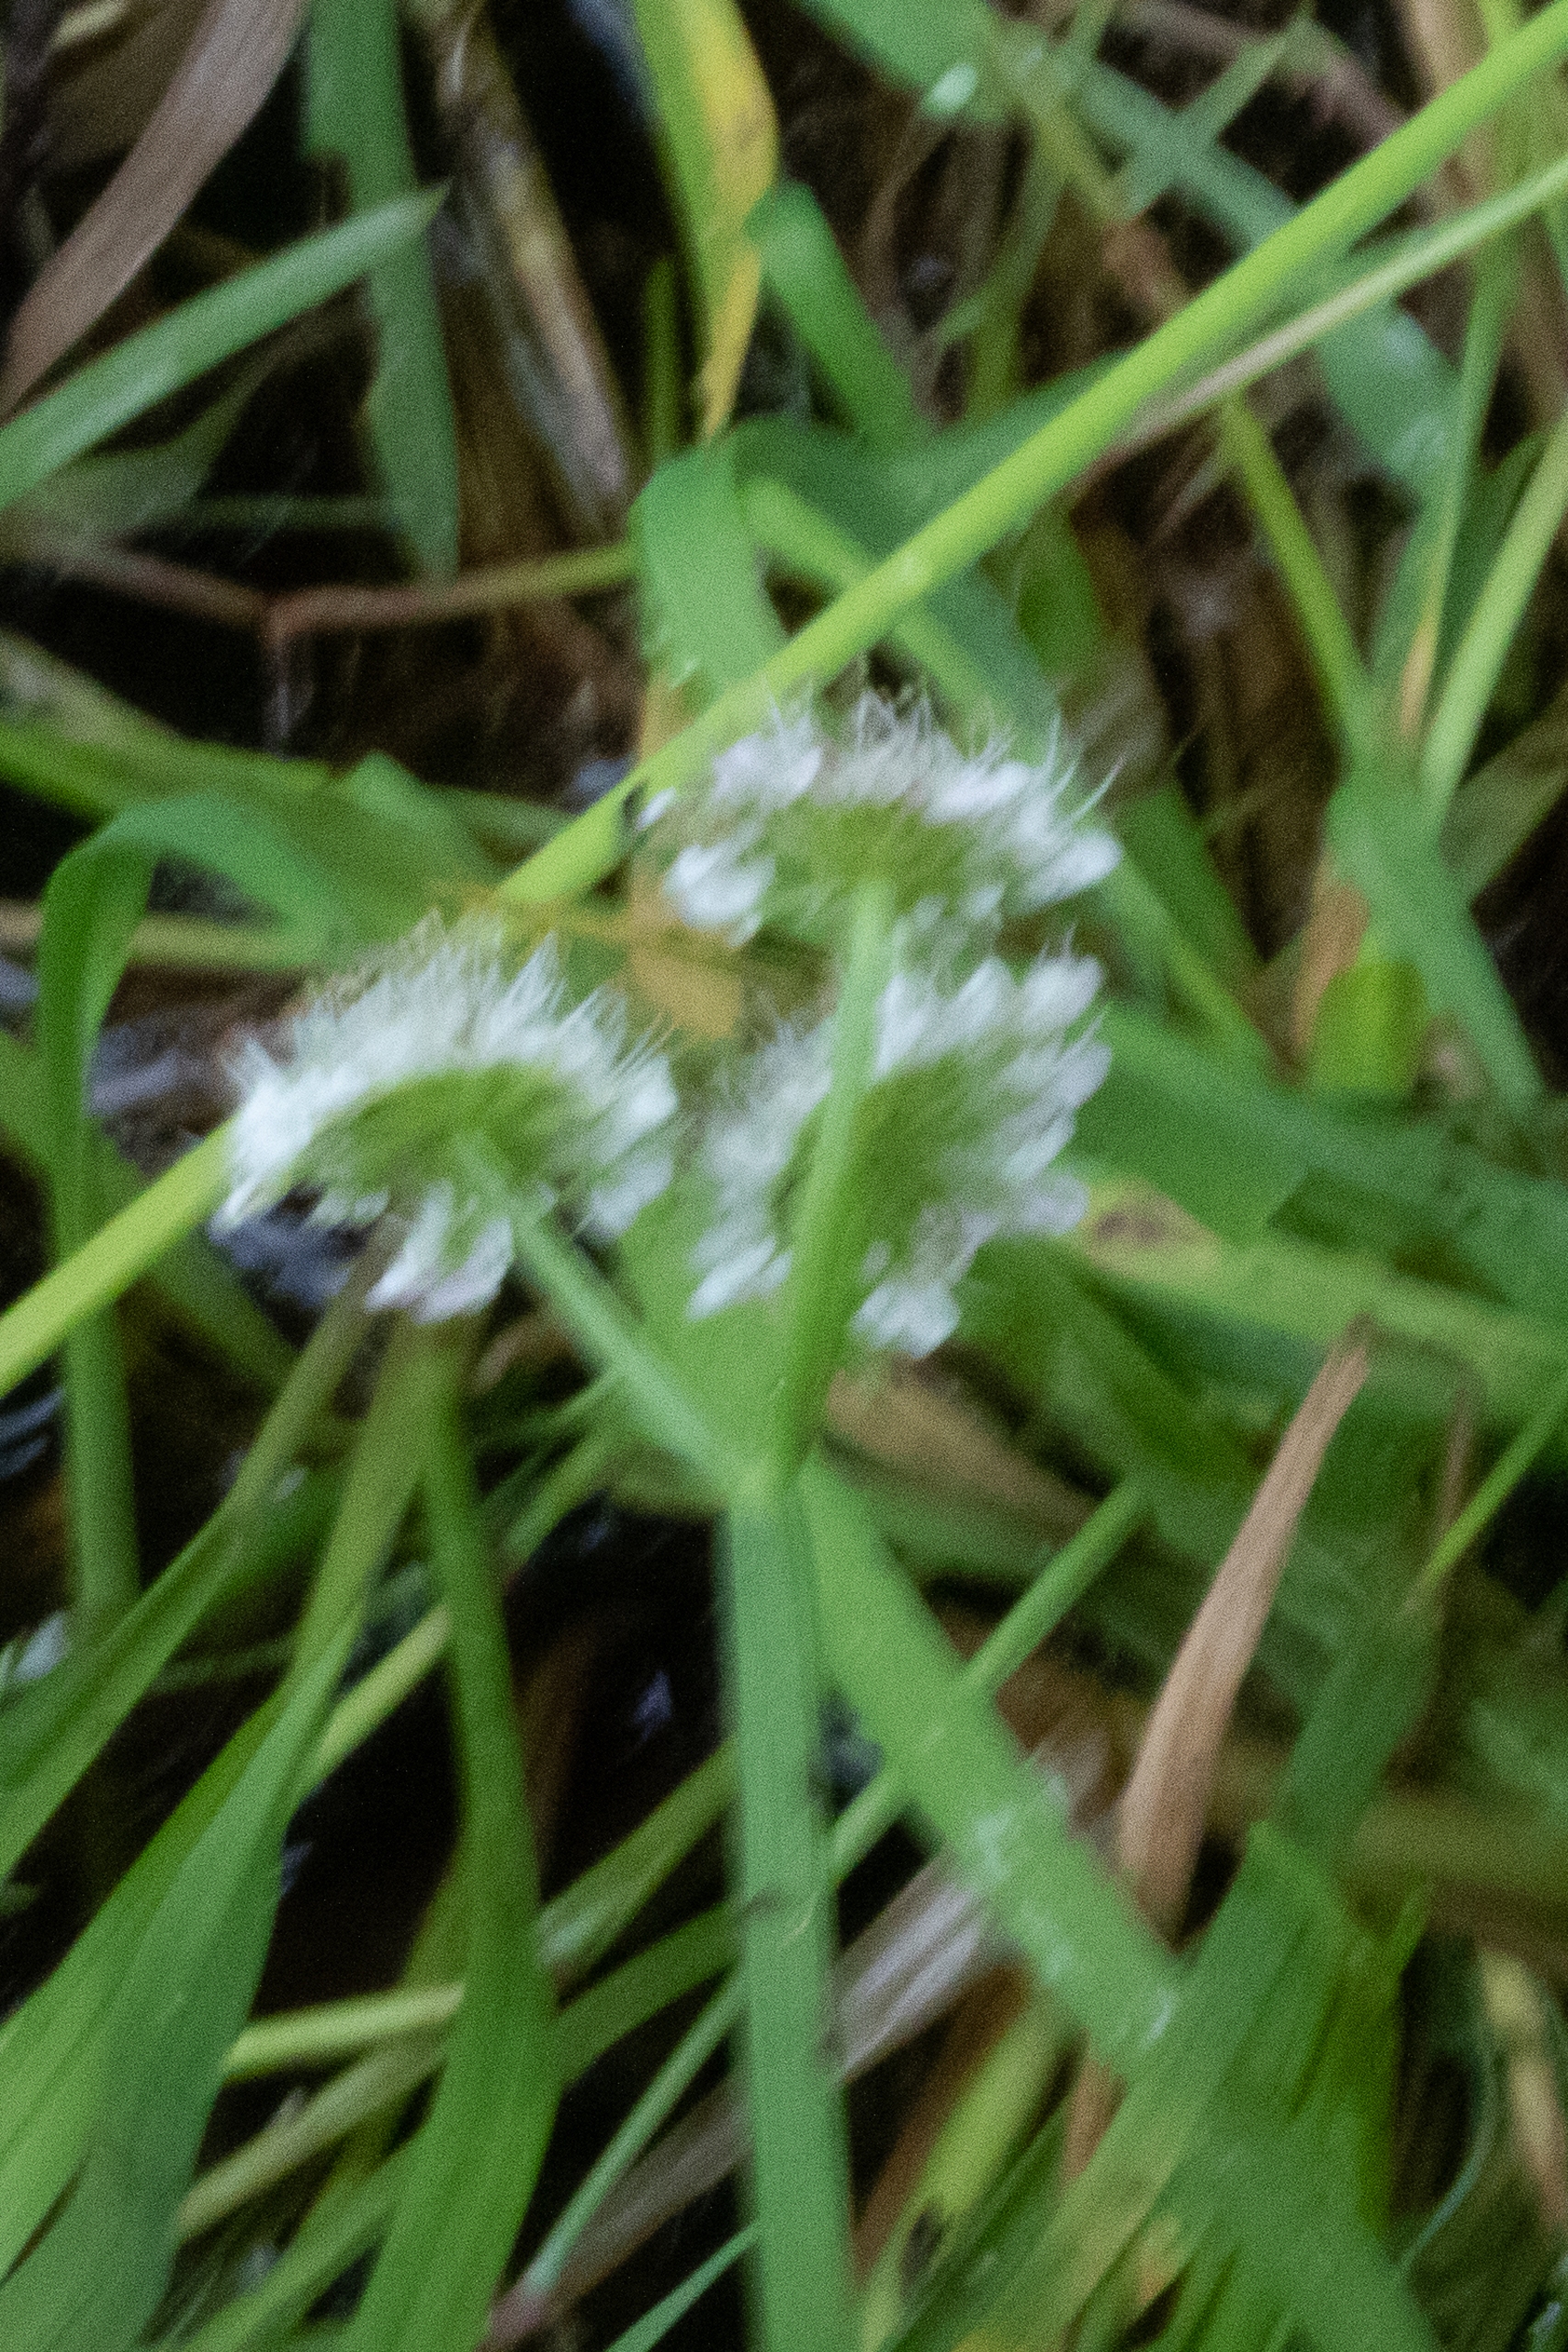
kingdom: Plantae
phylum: Tracheophyta
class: Magnoliopsida
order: Apiales
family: Apiaceae
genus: Oenanthe
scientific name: Oenanthe fistulosa
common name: Vand-klaseskærm
